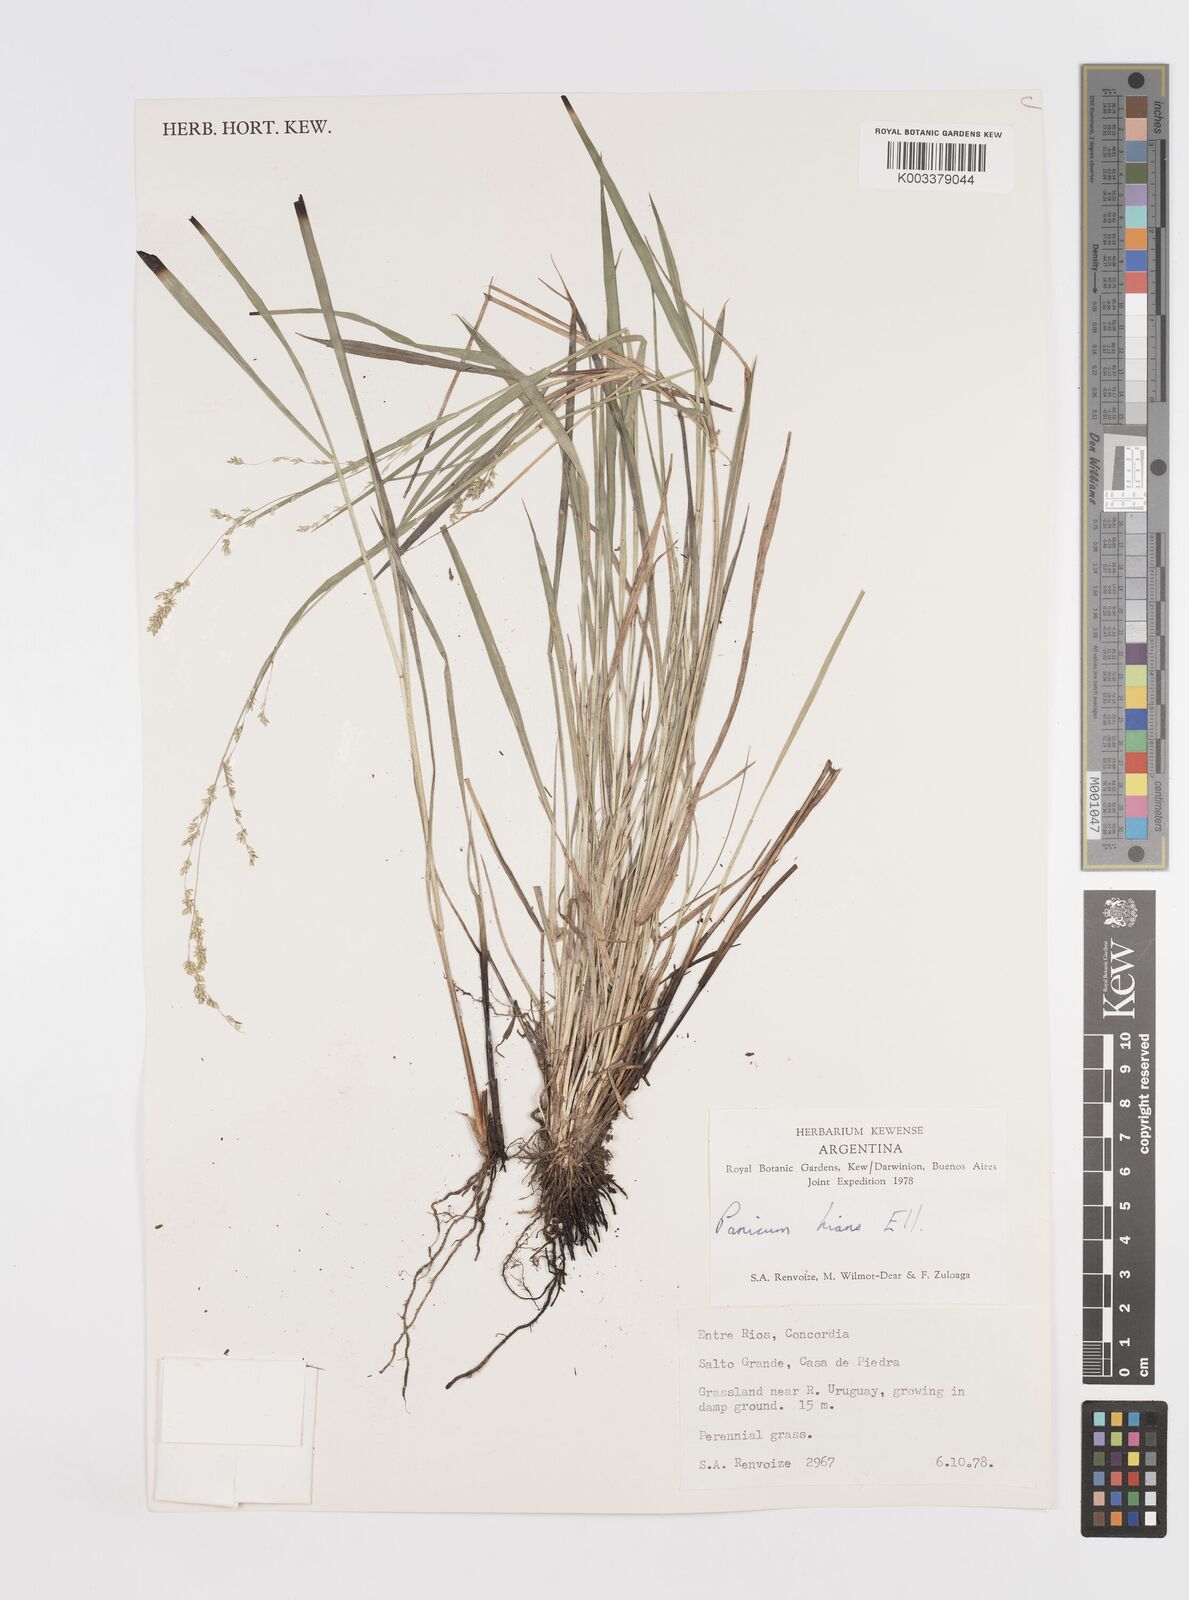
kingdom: Plantae
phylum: Tracheophyta
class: Liliopsida
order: Poales
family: Poaceae
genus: Steinchisma
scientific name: Steinchisma hians
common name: Gaping panic grass
